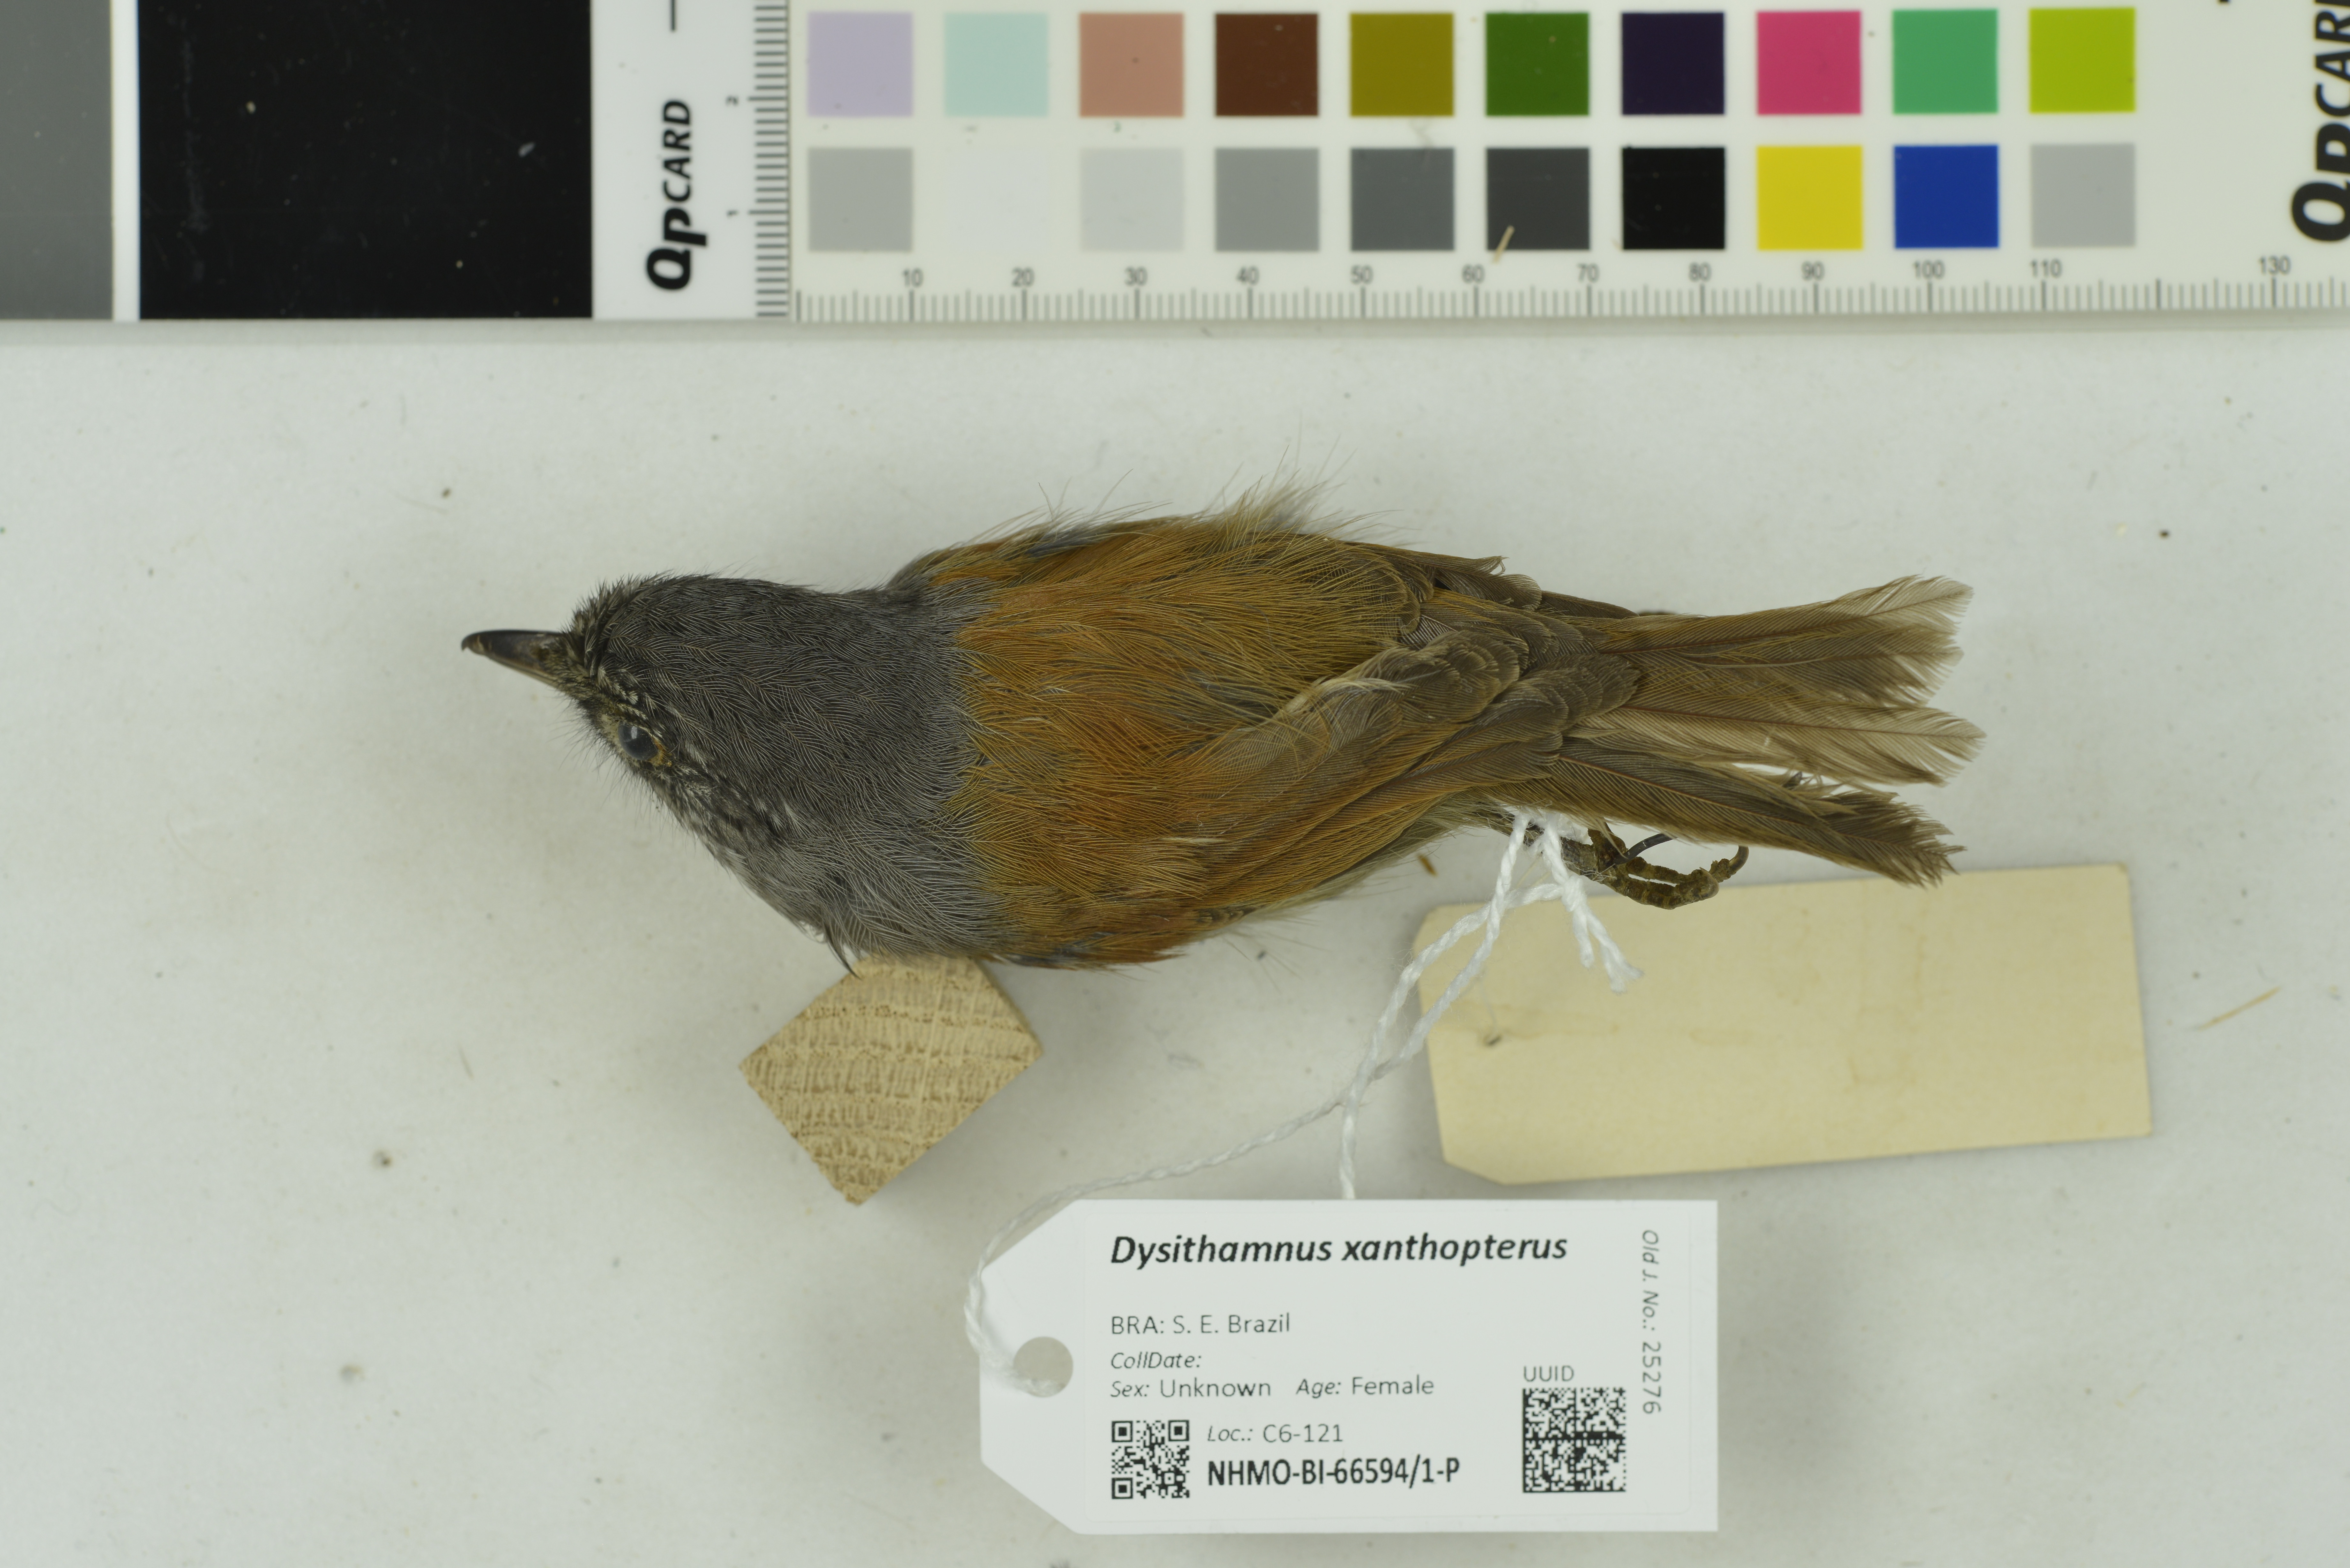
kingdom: Animalia
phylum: Chordata
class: Aves
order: Passeriformes
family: Thamnophilidae
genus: Dysithamnus
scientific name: Dysithamnus xanthopterus
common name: Rufous-backed antvireo
